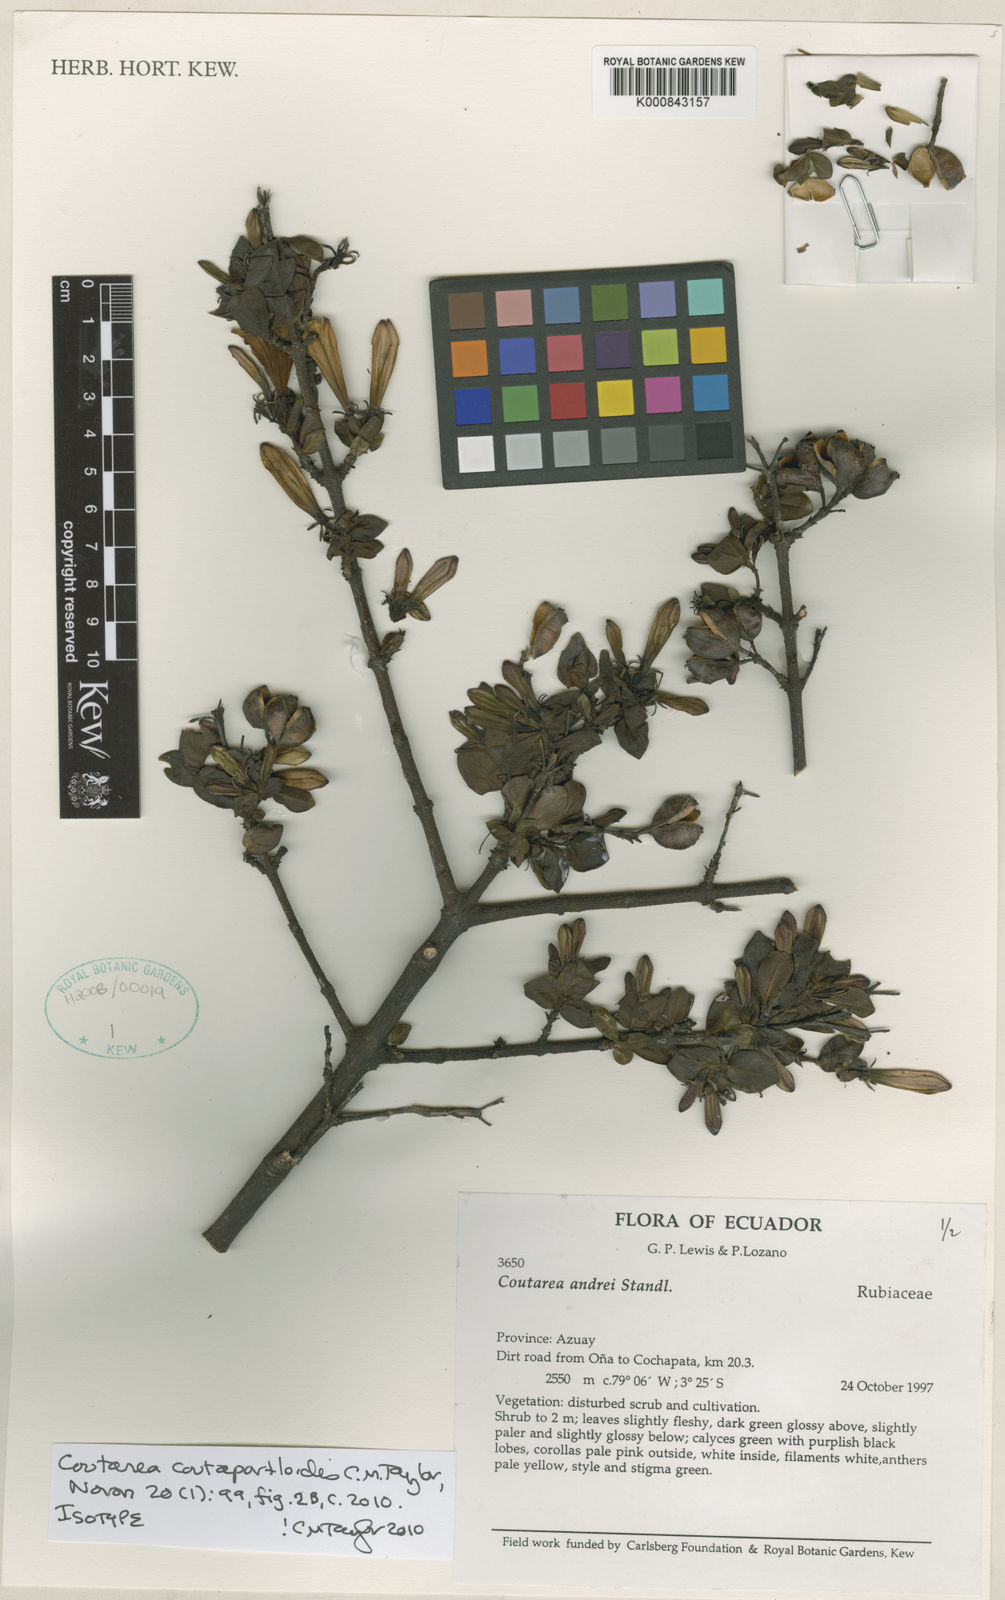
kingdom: Plantae
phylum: Tracheophyta
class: Magnoliopsida
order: Gentianales
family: Rubiaceae
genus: Coutareopsis
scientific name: Coutareopsis andrei
